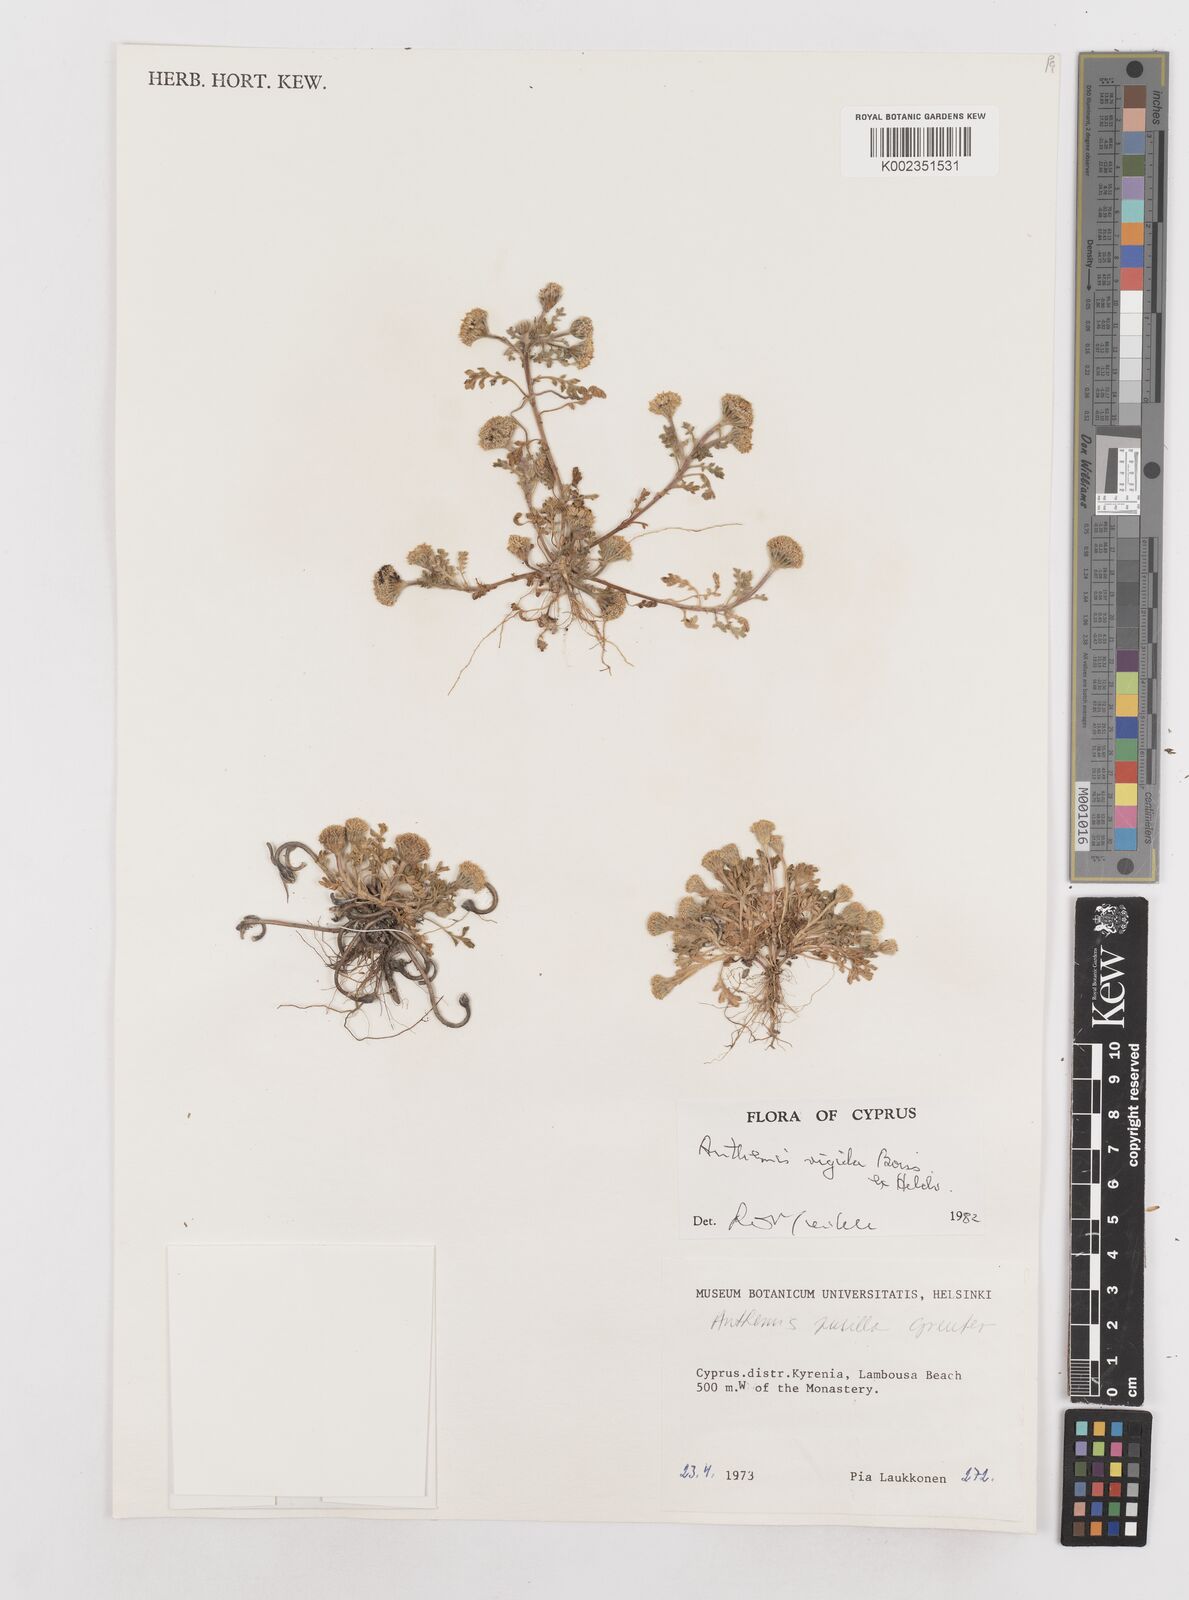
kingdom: Plantae
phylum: Tracheophyta
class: Magnoliopsida
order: Asterales
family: Asteraceae
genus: Anthemis
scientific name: Anthemis rigida
